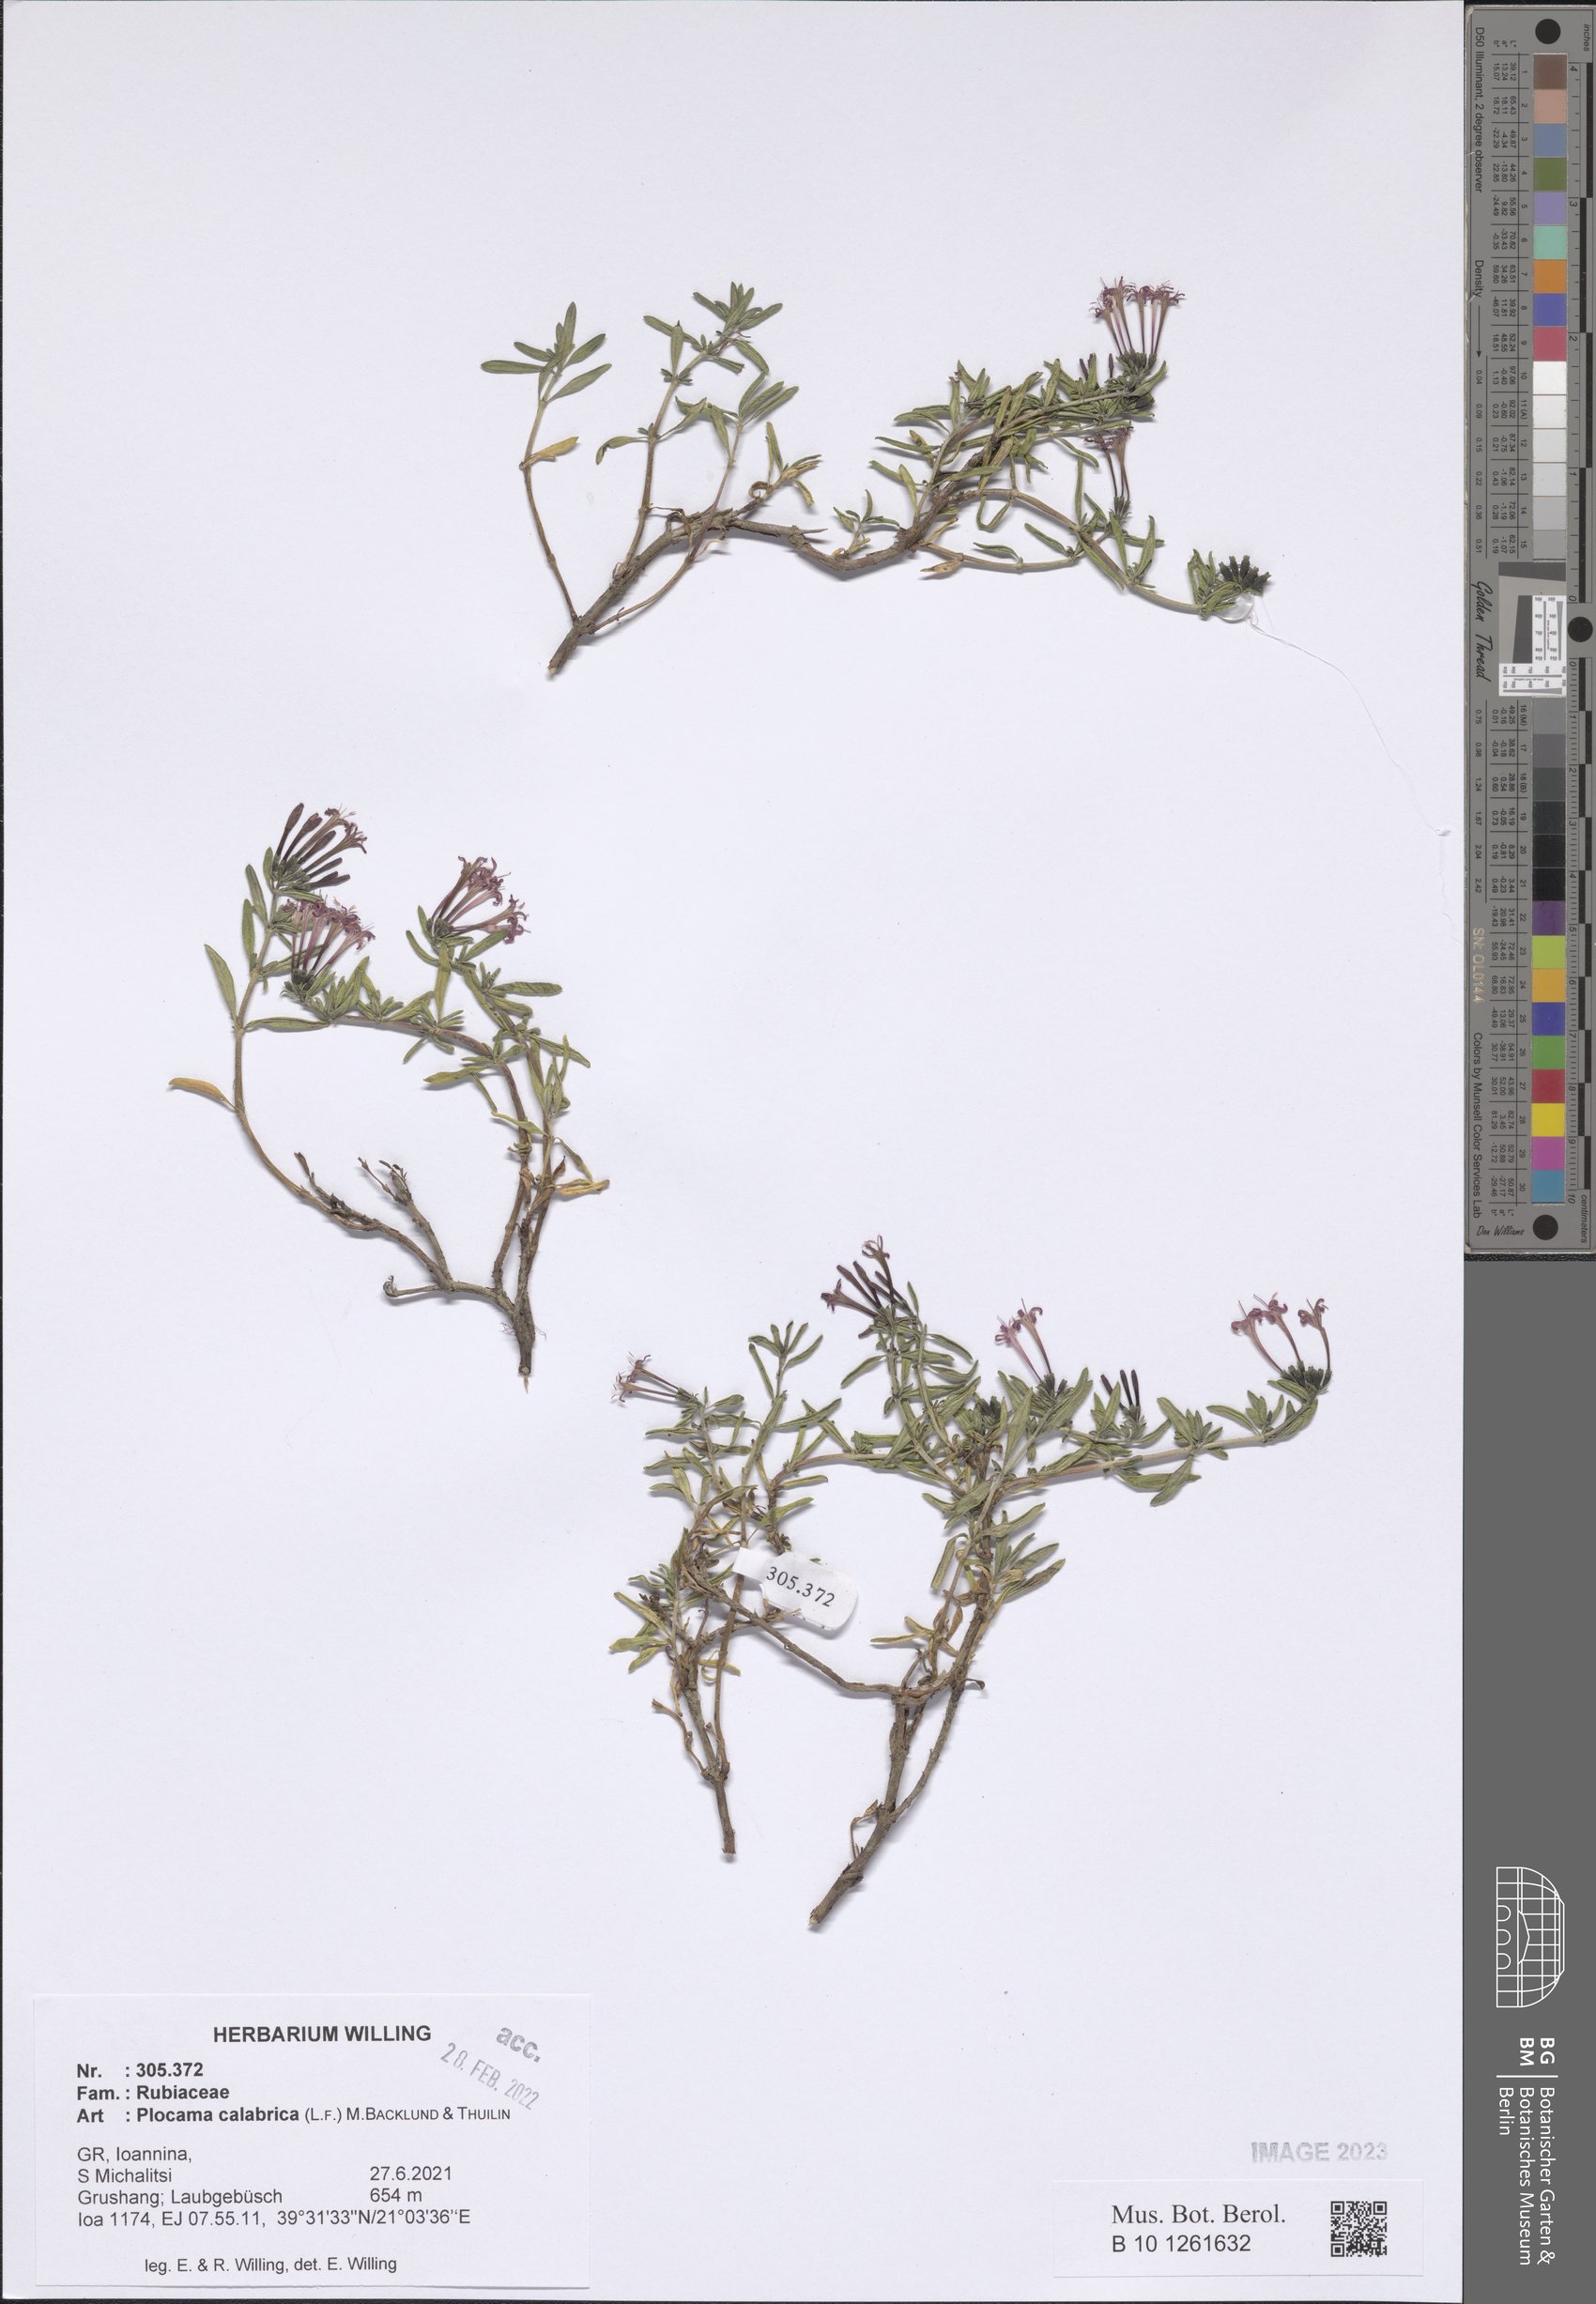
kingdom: Plantae
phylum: Tracheophyta
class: Magnoliopsida
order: Gentianales
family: Rubiaceae
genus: Plocama
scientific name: Plocama calabrica
